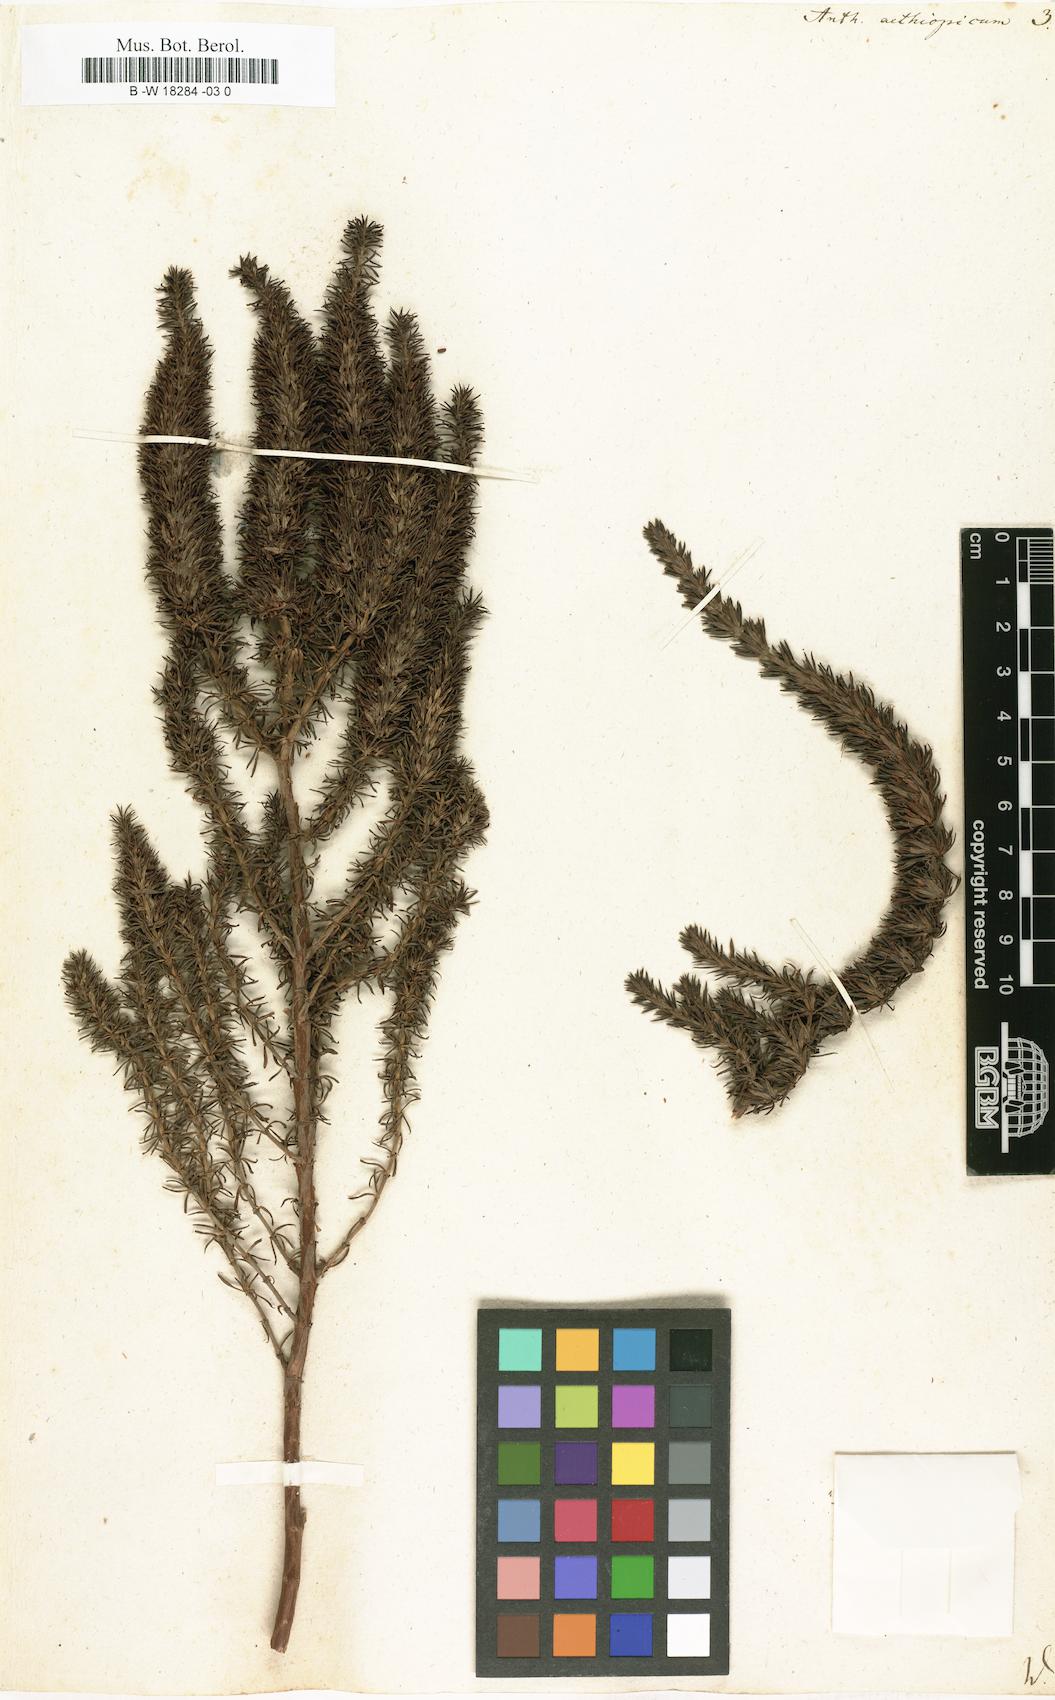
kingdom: Plantae
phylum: Tracheophyta
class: Magnoliopsida
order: Gentianales
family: Rubiaceae
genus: Anthospermum
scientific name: Anthospermum aethiopicum
